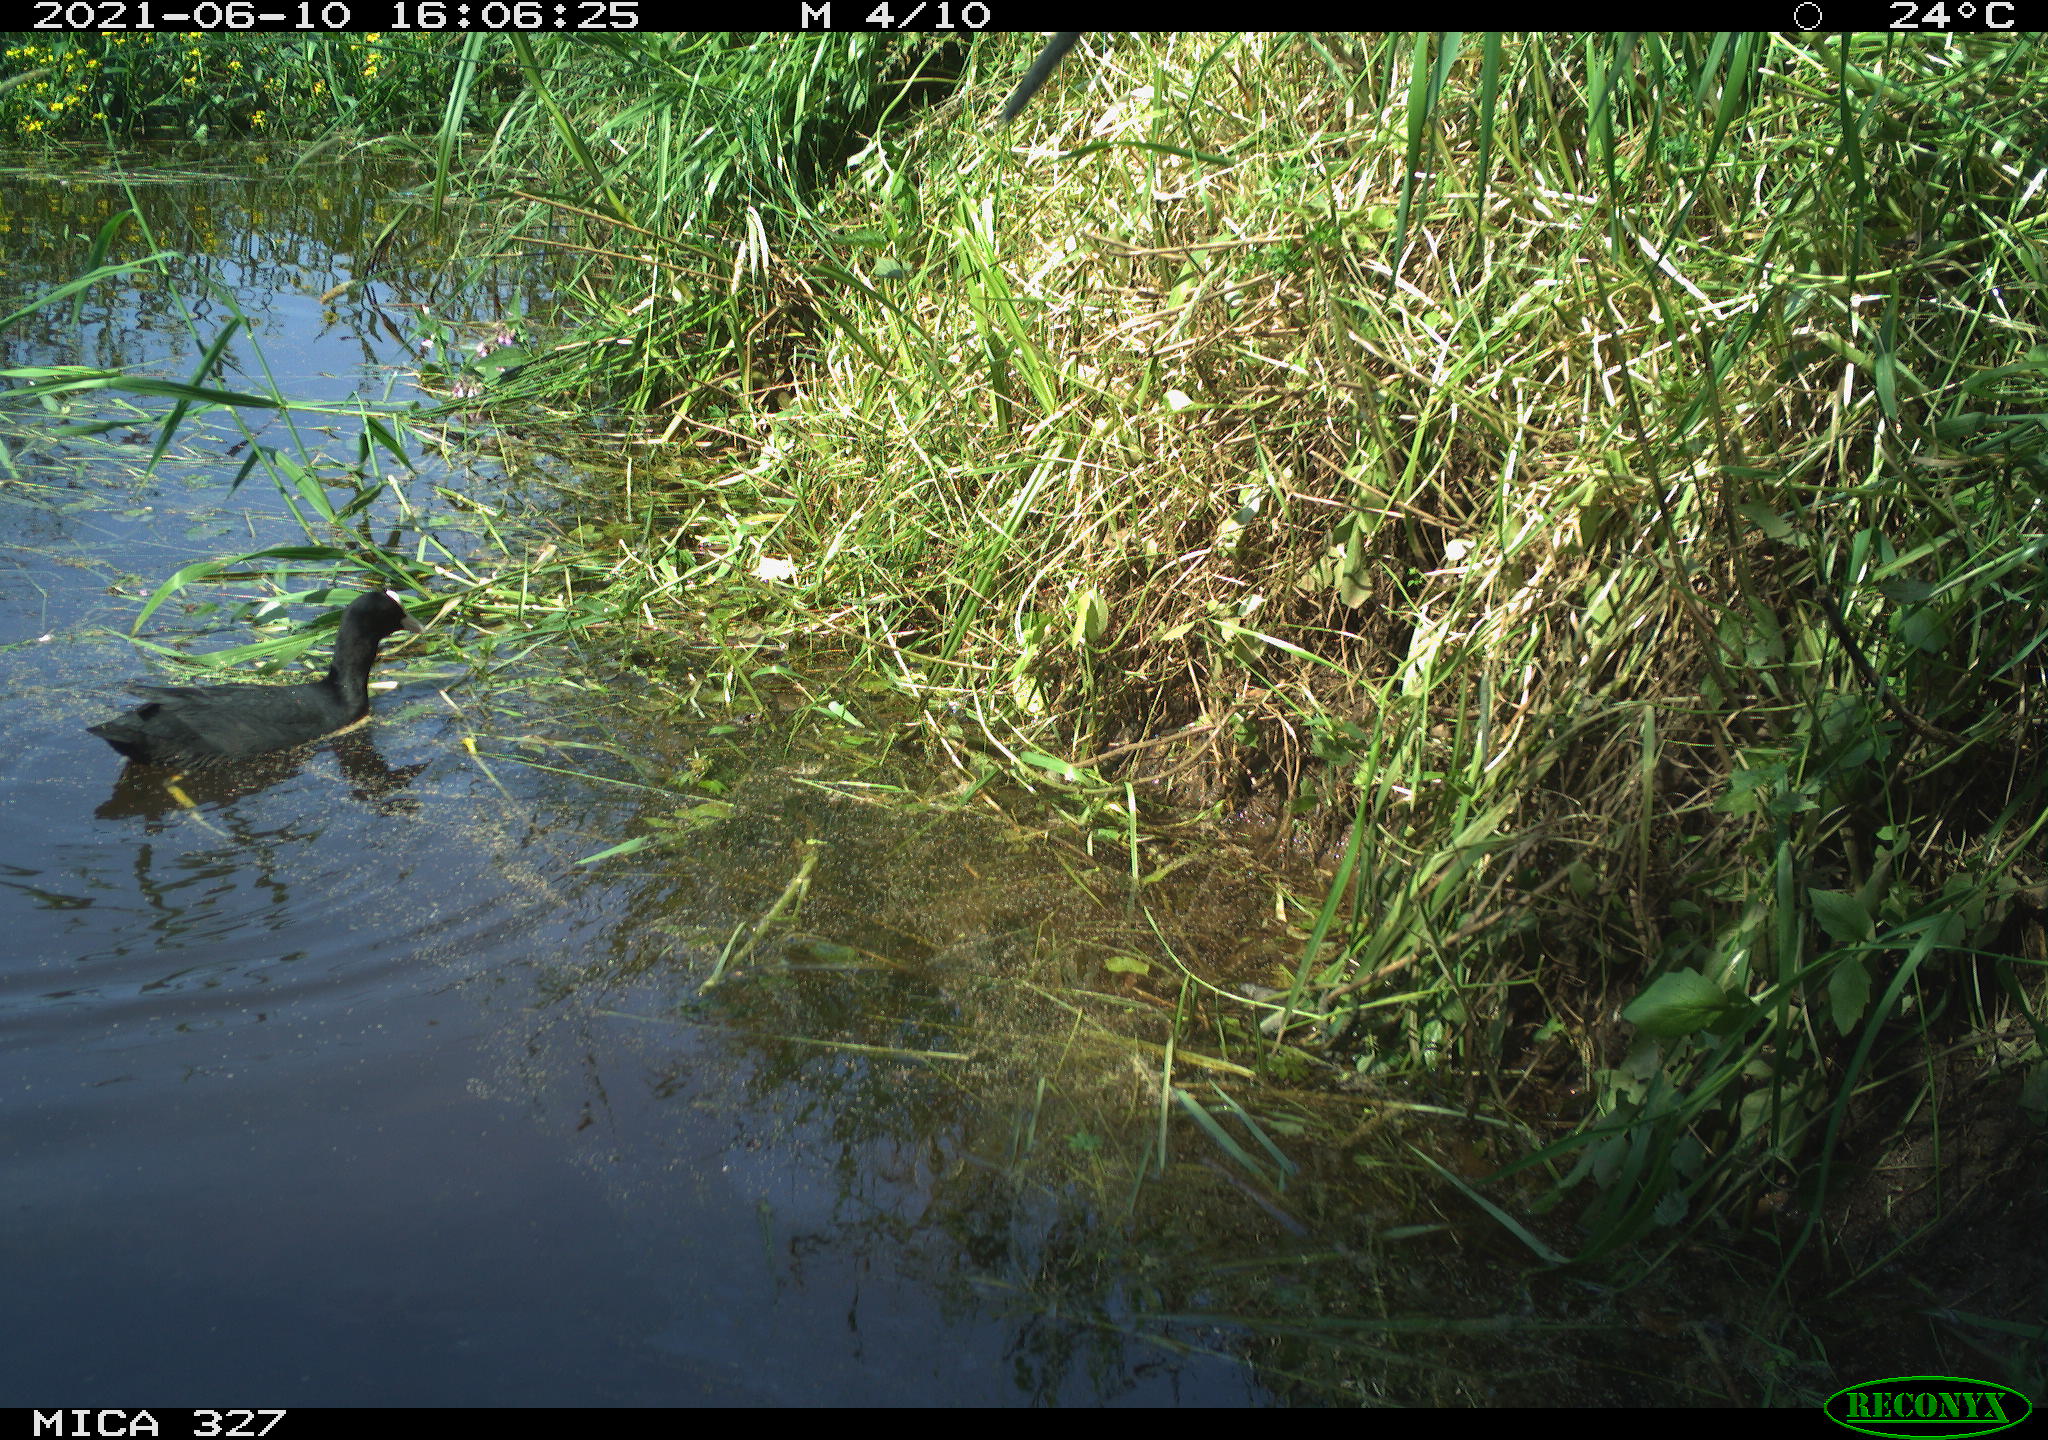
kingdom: Animalia
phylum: Chordata
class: Aves
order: Gruiformes
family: Rallidae
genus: Fulica
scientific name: Fulica atra
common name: Eurasian coot
